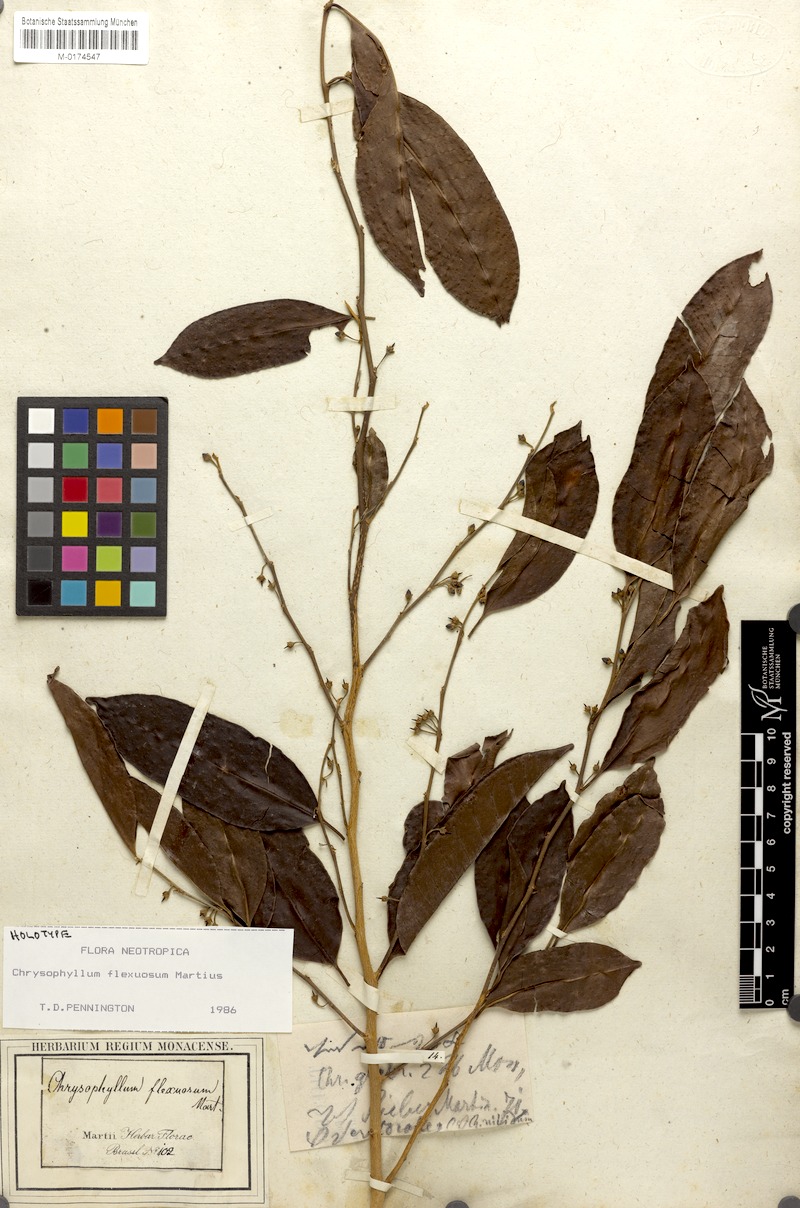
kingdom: Plantae
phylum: Tracheophyta
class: Magnoliopsida
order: Ericales
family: Sapotaceae
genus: Chrysophyllum
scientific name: Chrysophyllum flexuosum
